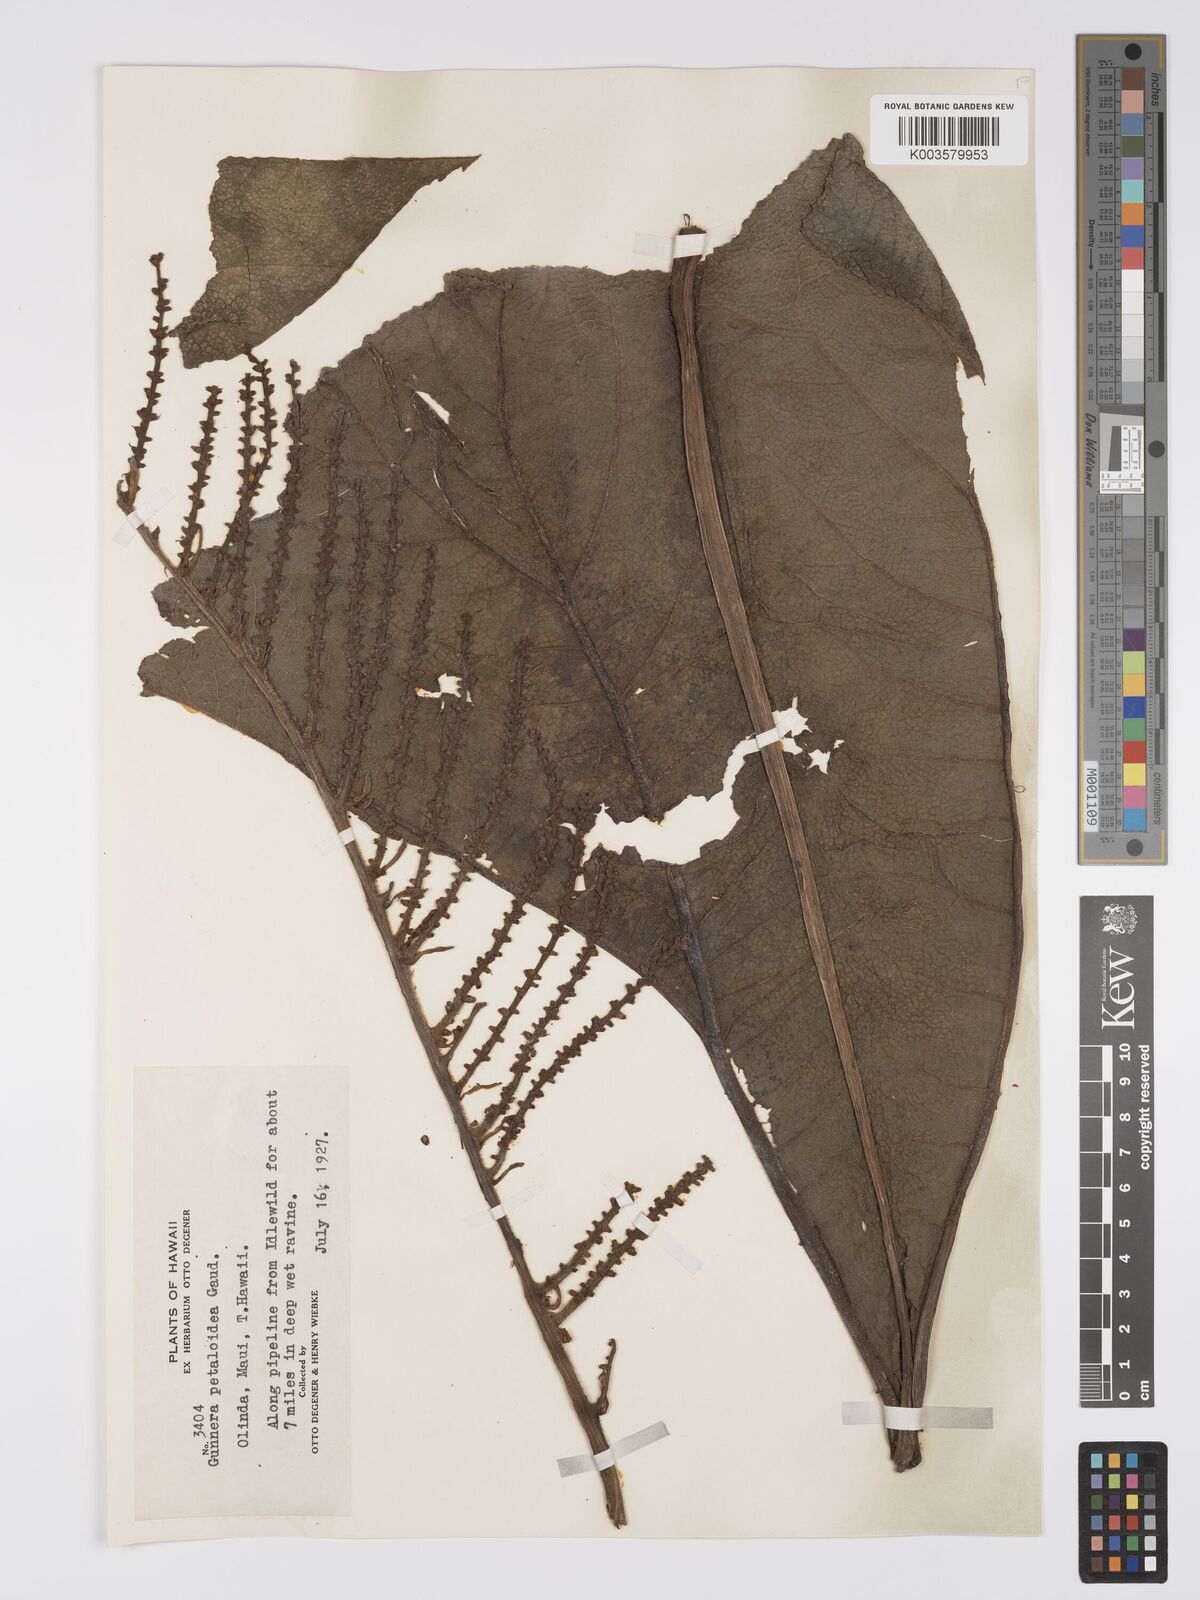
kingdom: Plantae
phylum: Tracheophyta
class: Magnoliopsida
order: Gunnerales
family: Gunneraceae
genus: Gunnera
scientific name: Gunnera petaloidea
